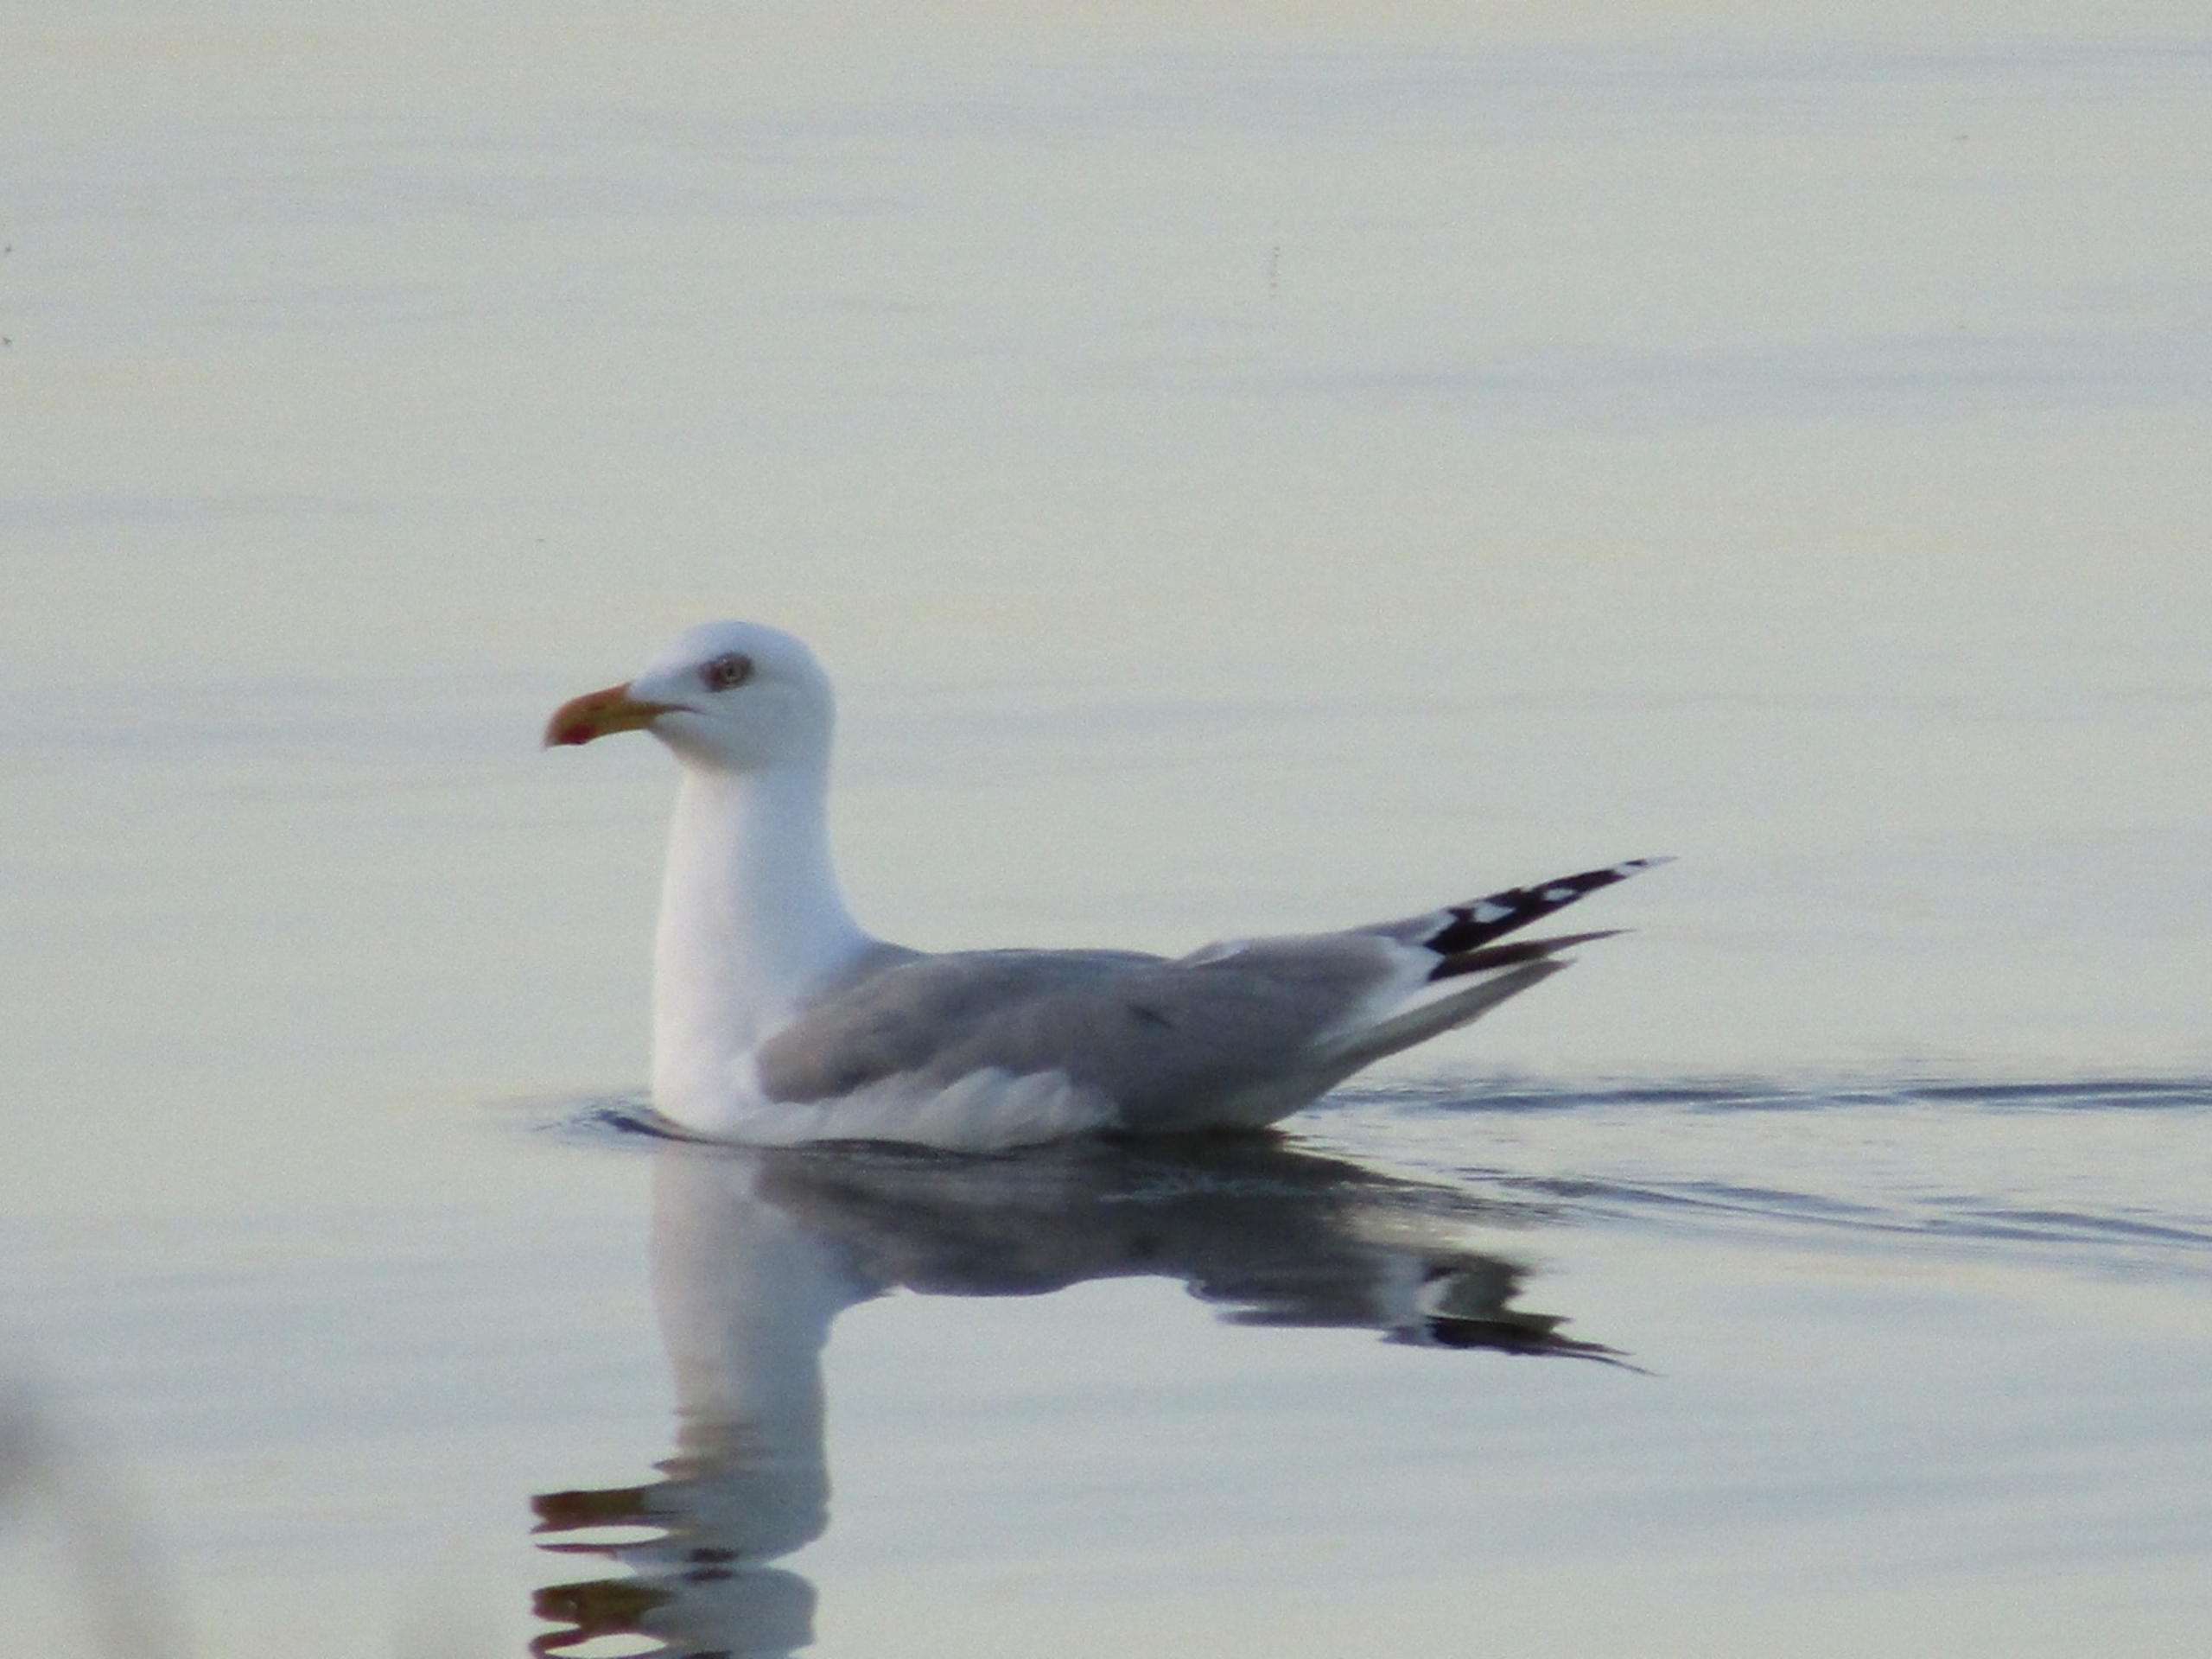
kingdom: Animalia
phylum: Chordata
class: Aves
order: Charadriiformes
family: Laridae
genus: Larus
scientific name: Larus argentatus
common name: Sølvmåge
